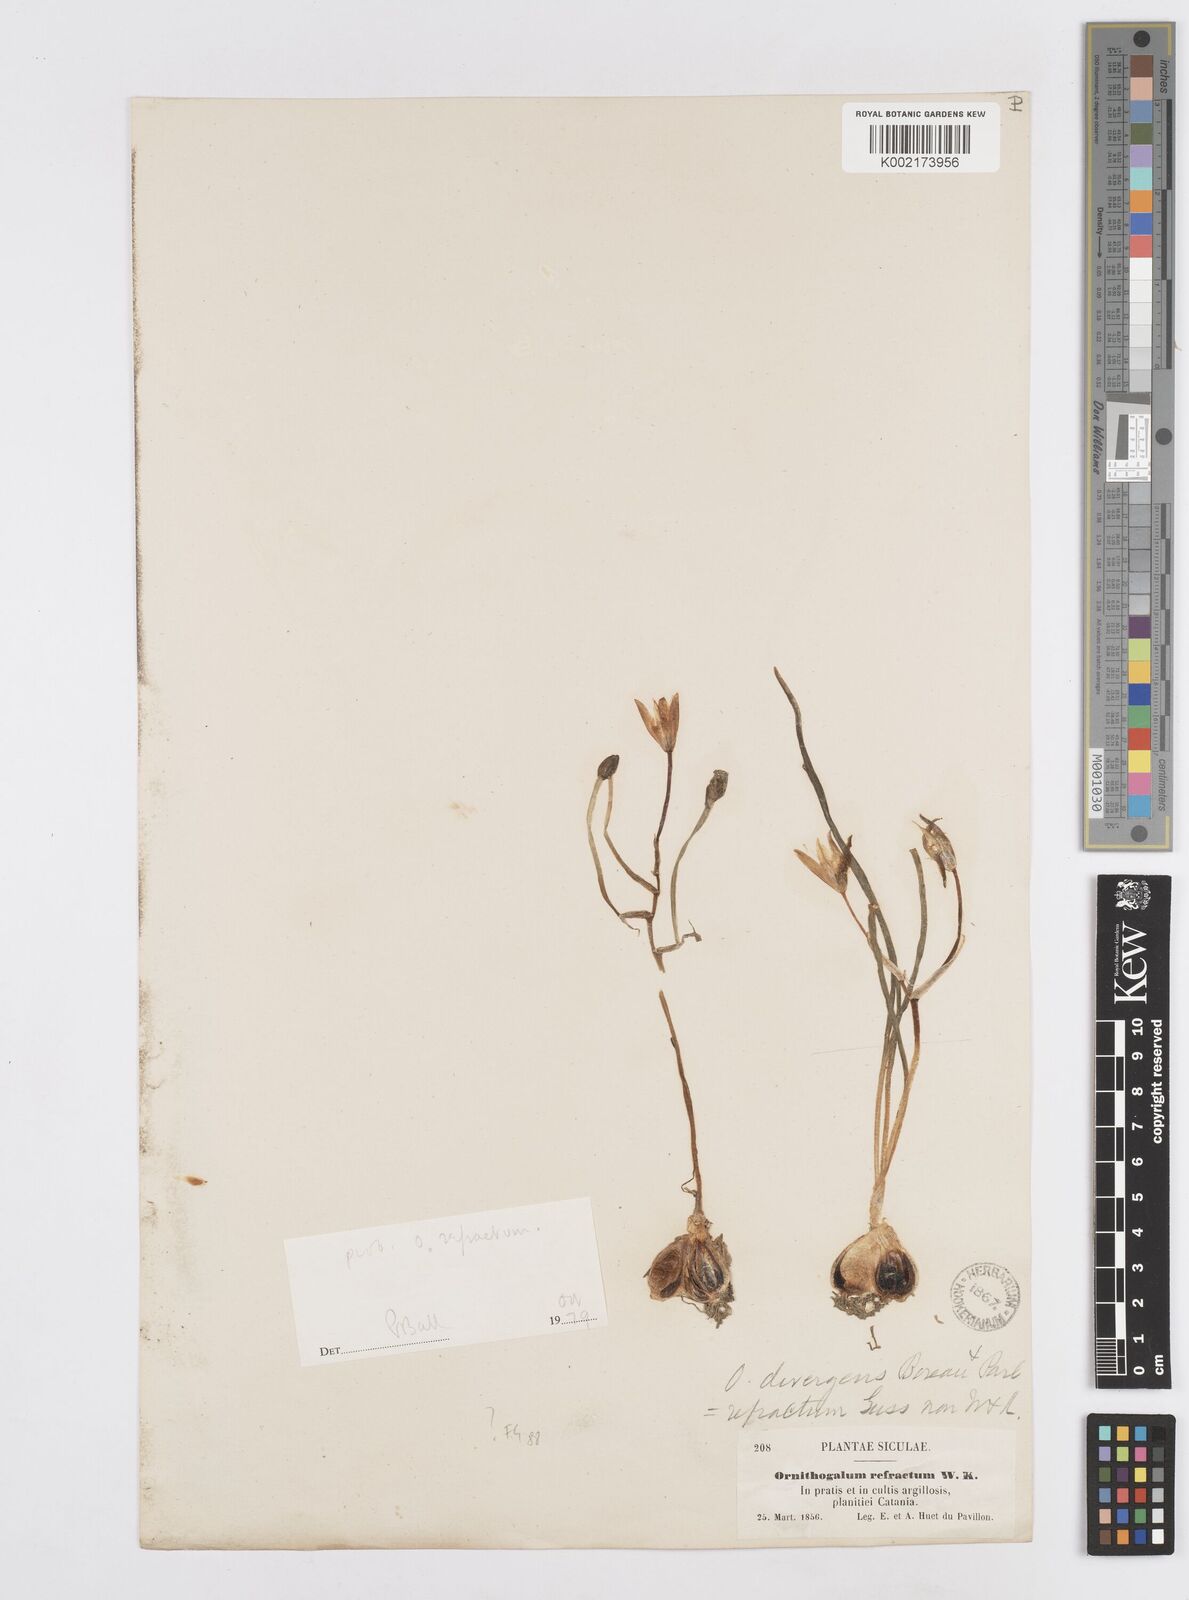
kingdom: Plantae
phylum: Tracheophyta
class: Liliopsida
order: Asparagales
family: Asparagaceae
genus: Ornithogalum
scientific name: Ornithogalum divergens
